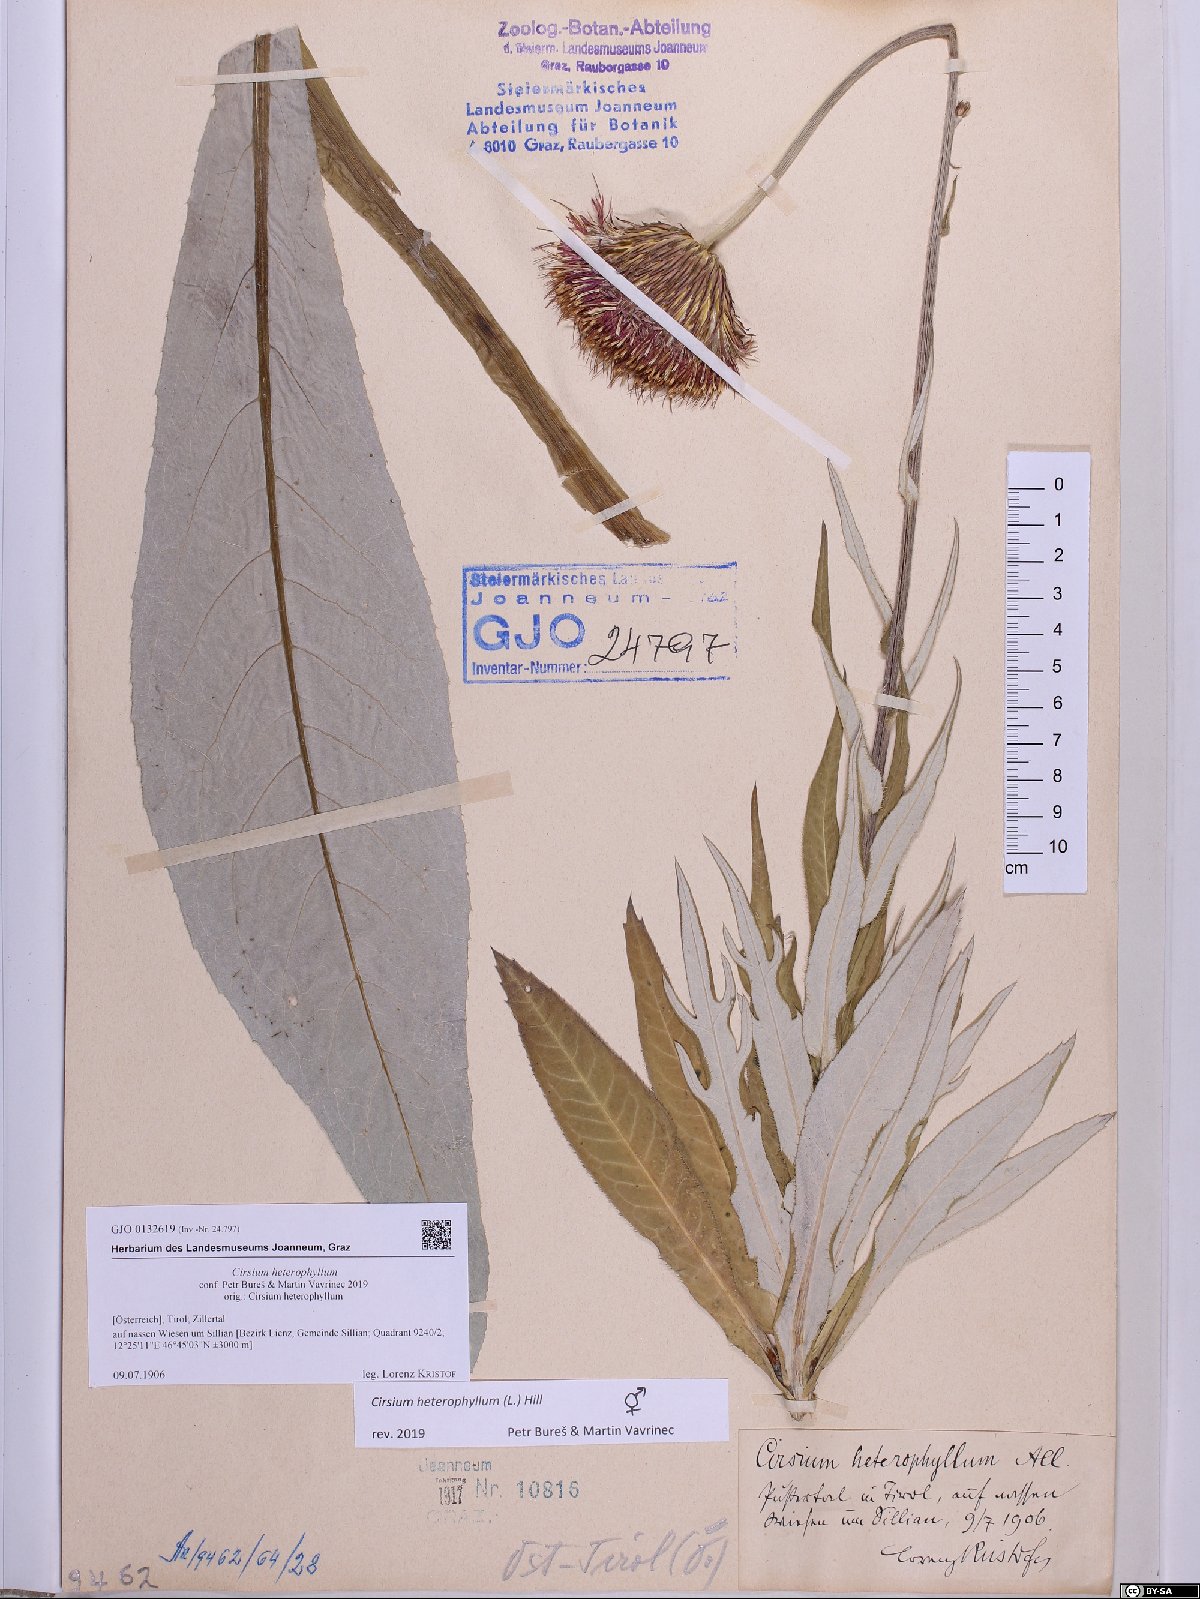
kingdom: Plantae
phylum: Tracheophyta
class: Magnoliopsida
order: Asterales
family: Asteraceae
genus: Cirsium
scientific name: Cirsium heterophyllum
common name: Melancholy thistle
